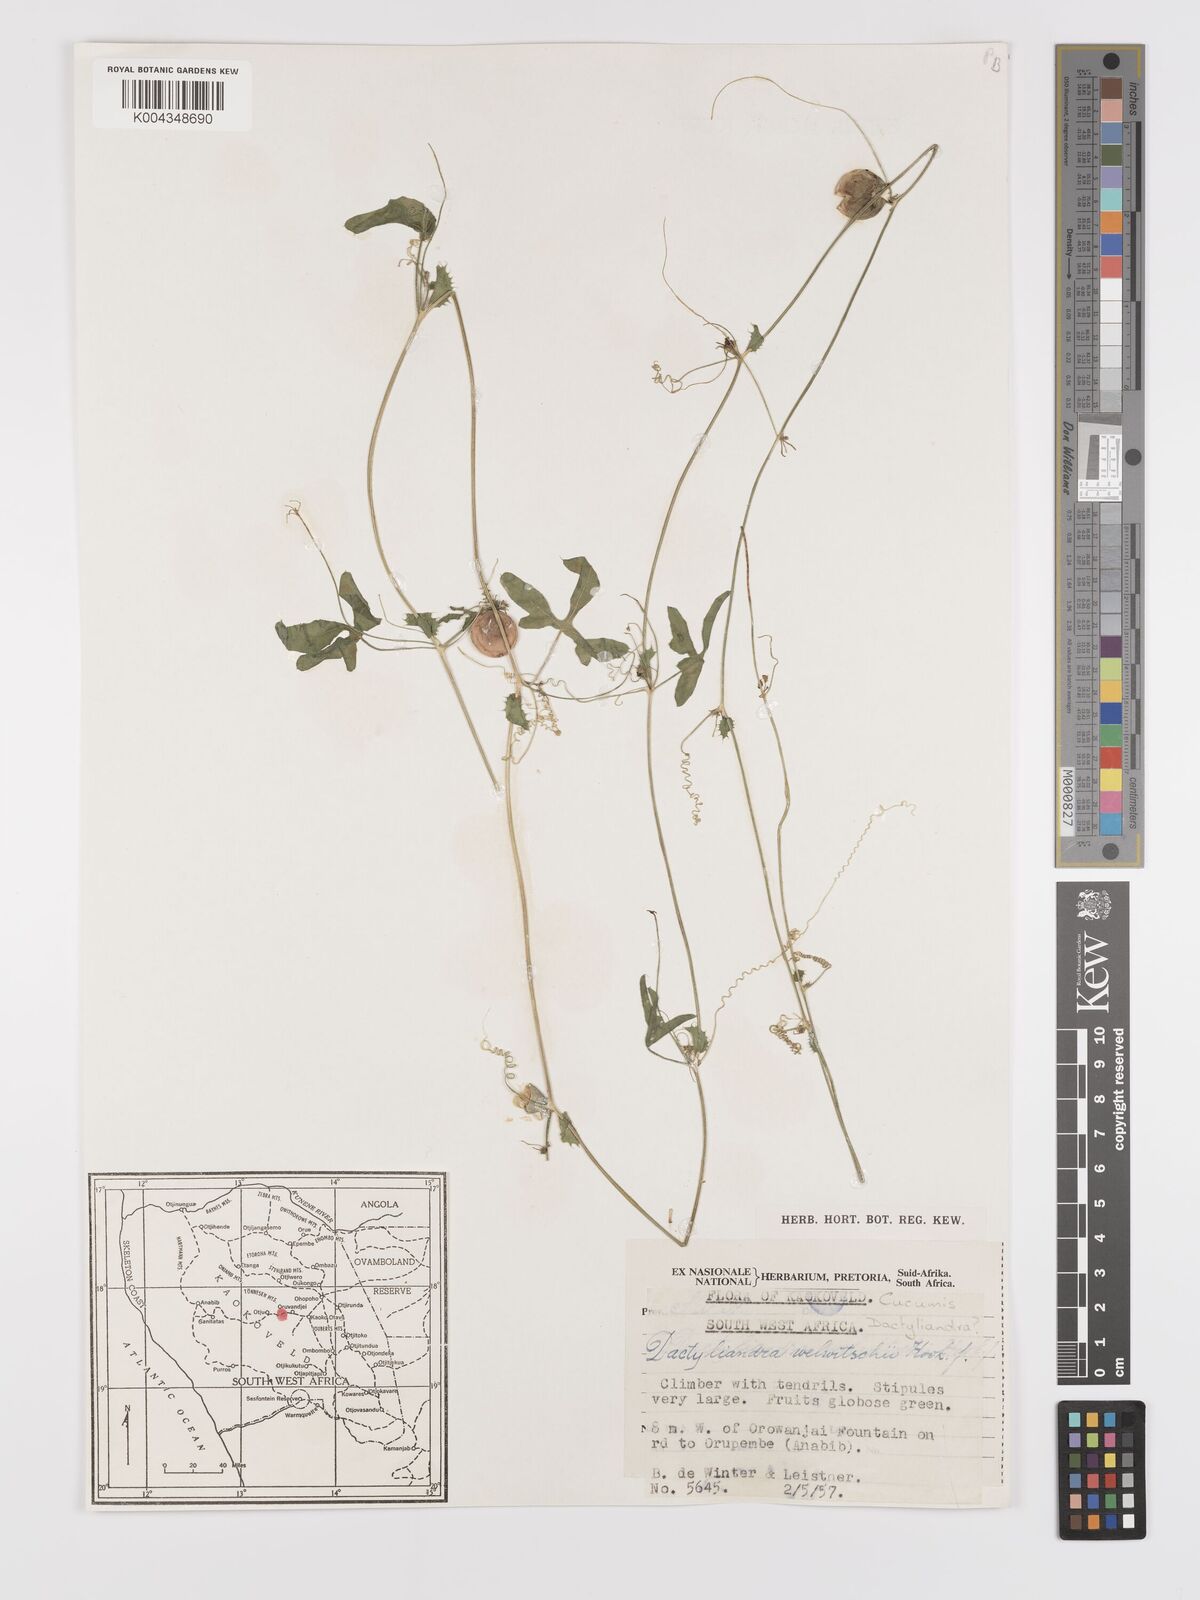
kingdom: Plantae
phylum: Tracheophyta
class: Magnoliopsida
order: Cucurbitales
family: Cucurbitaceae
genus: Dactyliandra
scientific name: Dactyliandra welwitschii
